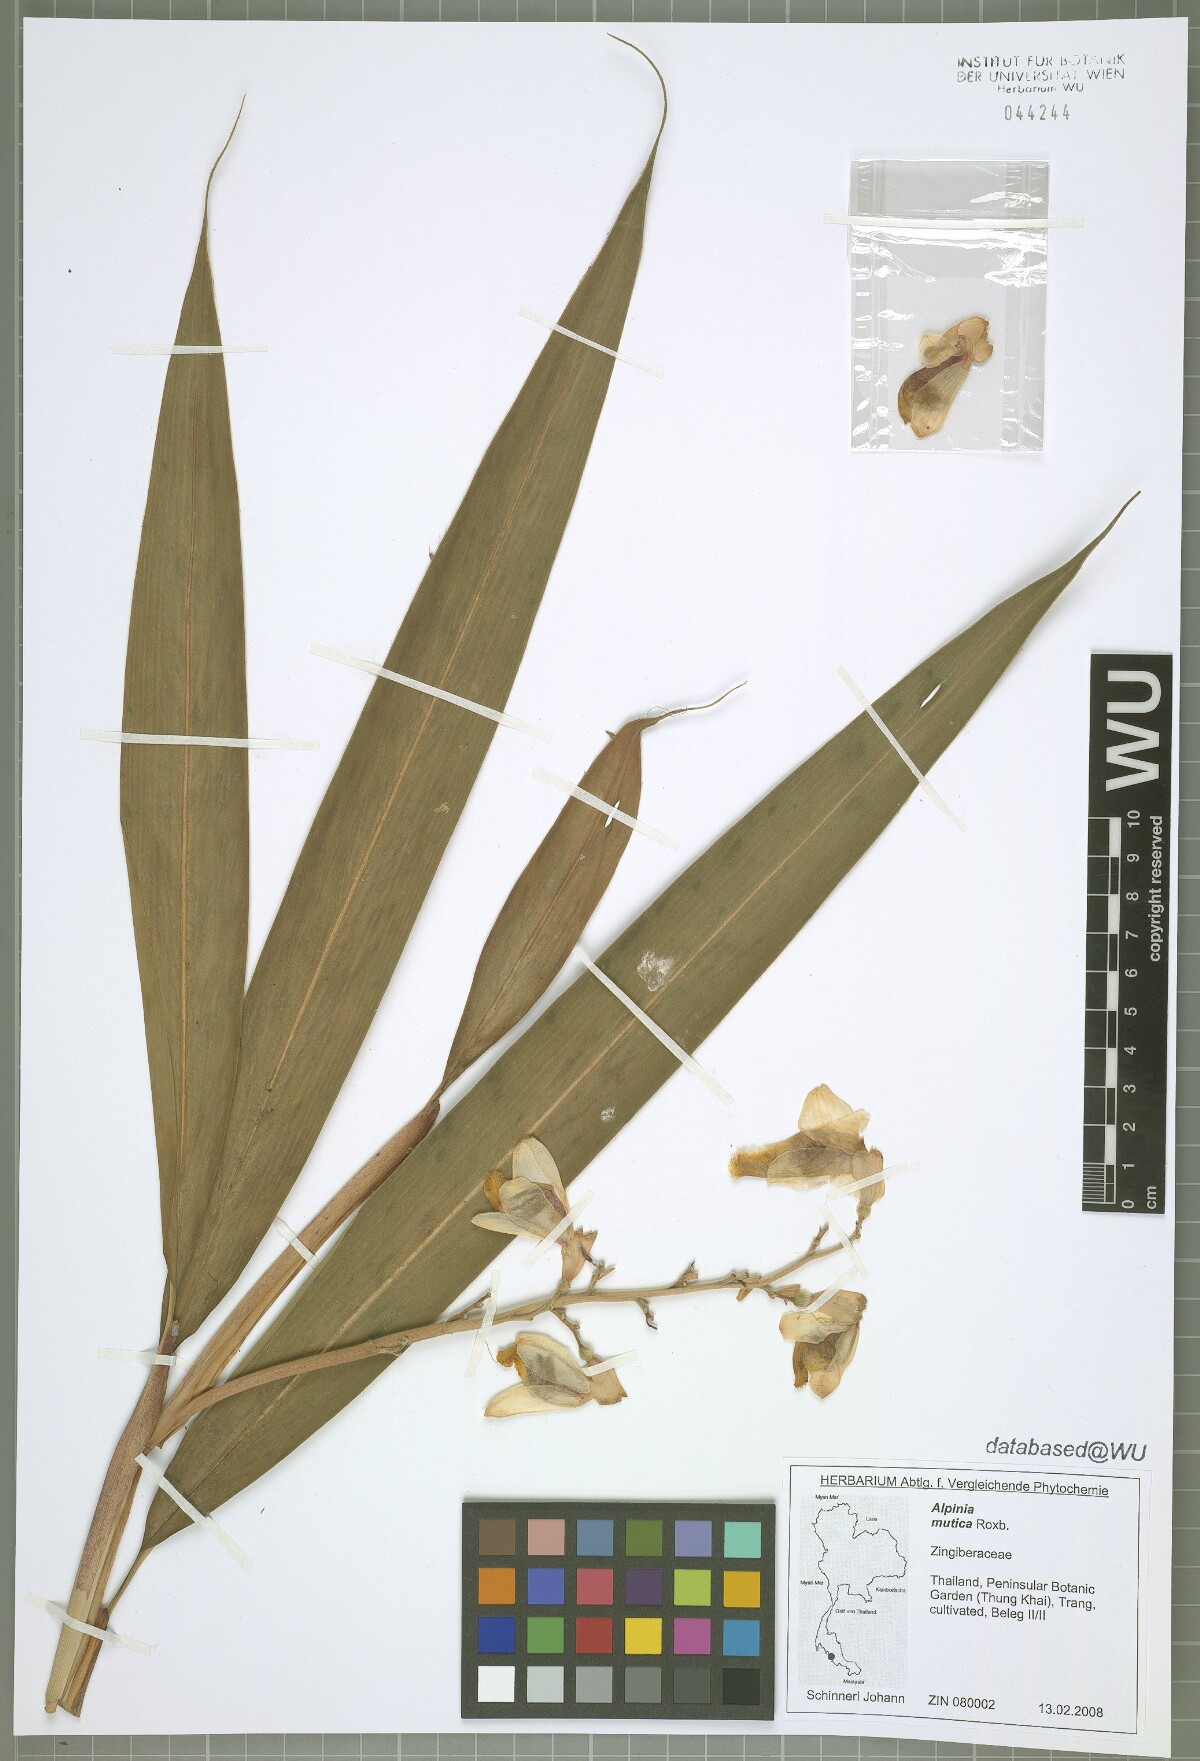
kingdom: Plantae
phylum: Tracheophyta
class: Liliopsida
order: Zingiberales
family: Zingiberaceae
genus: Alpinia
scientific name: Alpinia mutica
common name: Small shell ginger
